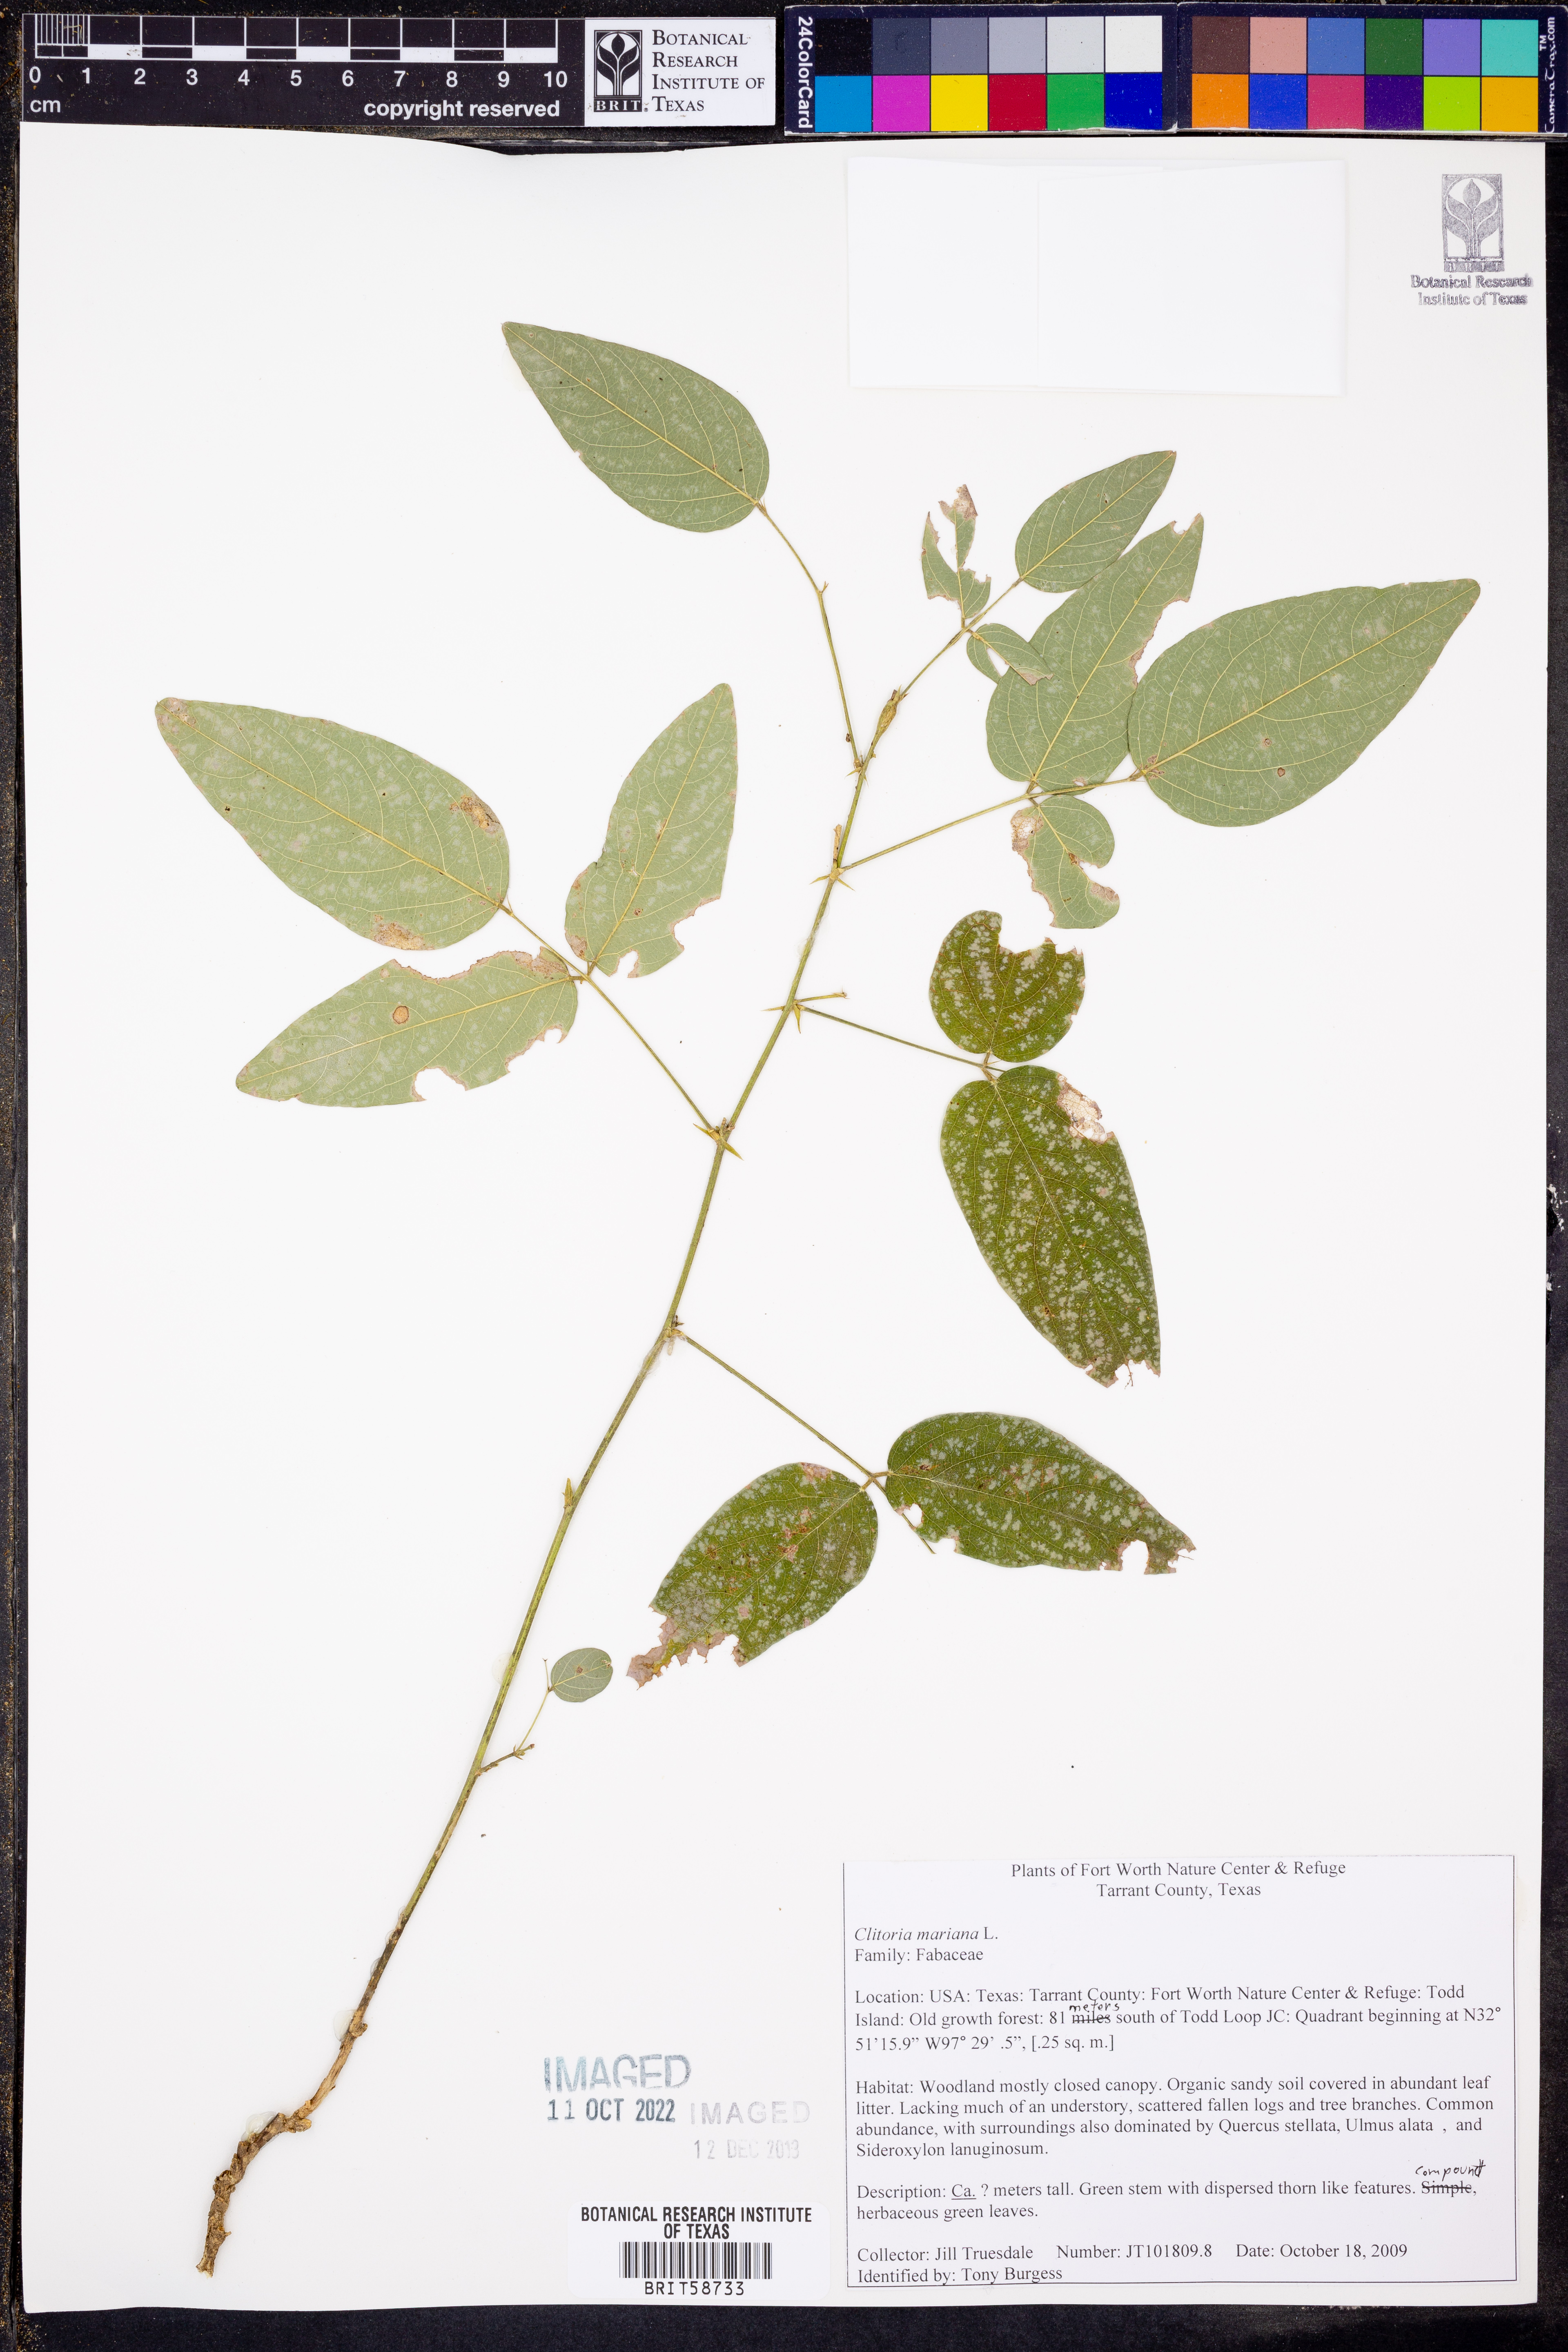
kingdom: Plantae
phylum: Tracheophyta
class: Magnoliopsida
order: Fabales
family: Fabaceae
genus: Clitoria
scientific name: Clitoria mariana
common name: Butterfly-pea
